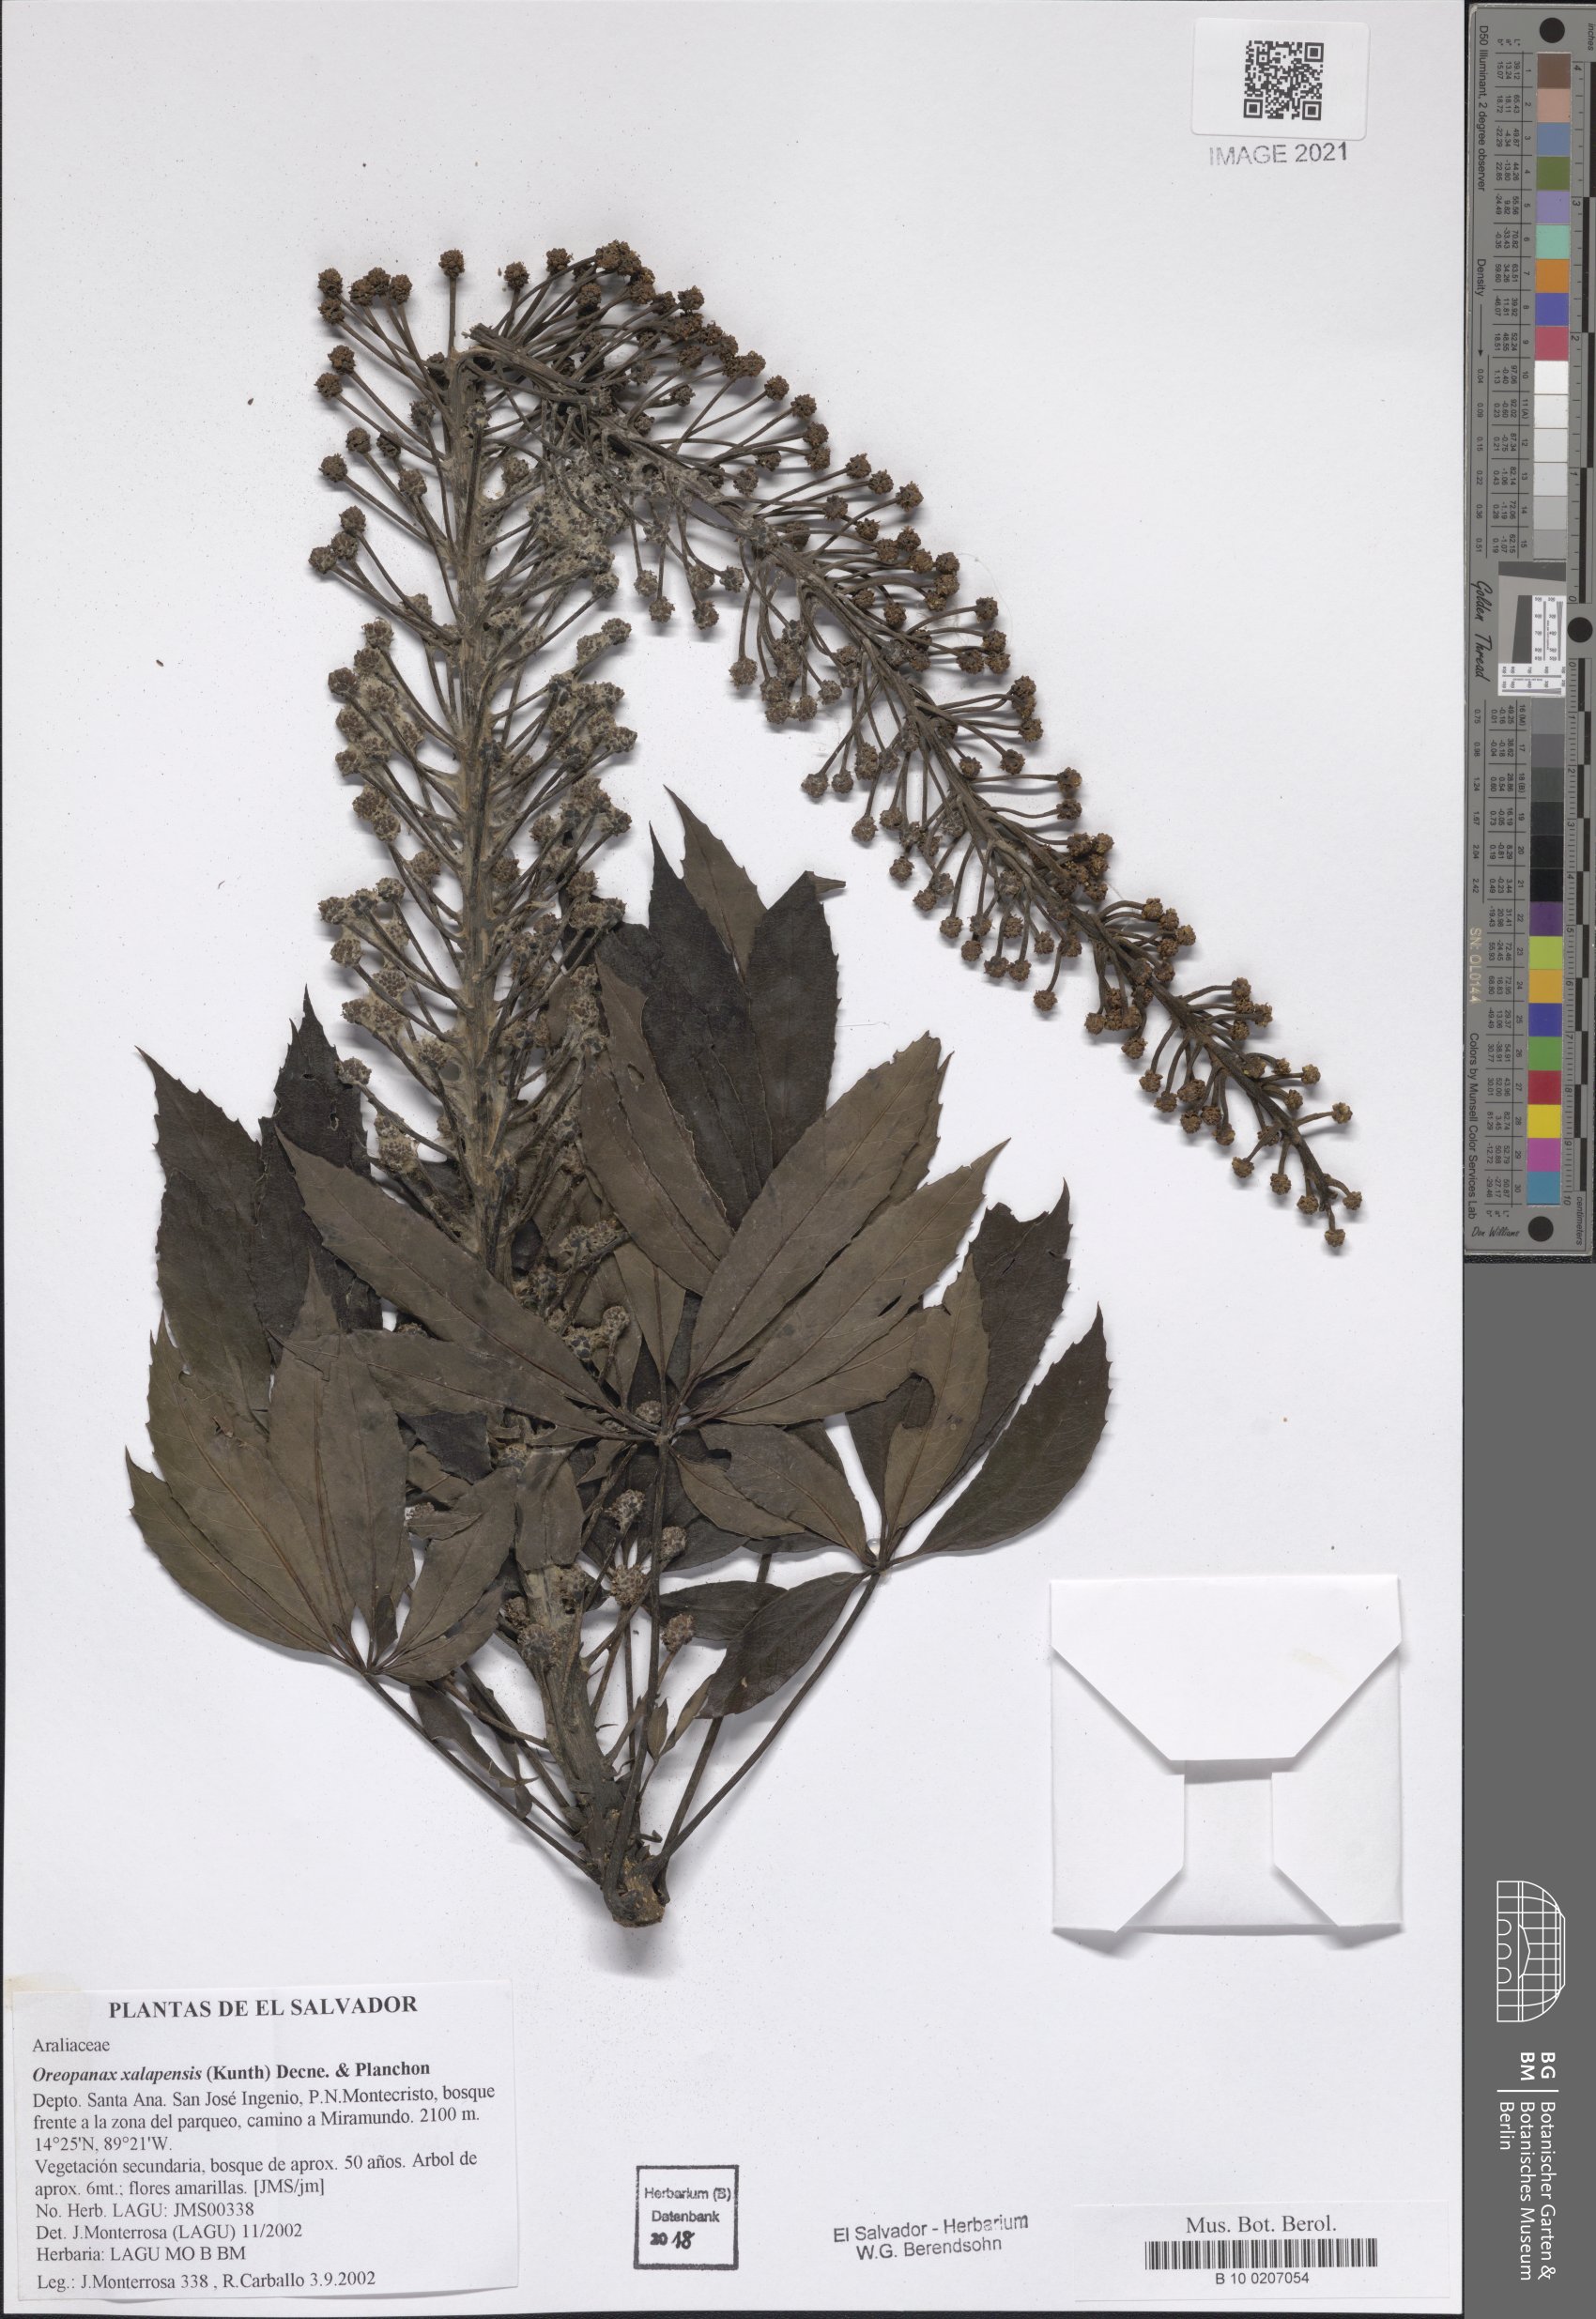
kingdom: Plantae
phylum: Tracheophyta
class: Magnoliopsida
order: Apiales
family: Araliaceae
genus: Oreopanax
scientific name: Oreopanax xalapensis
